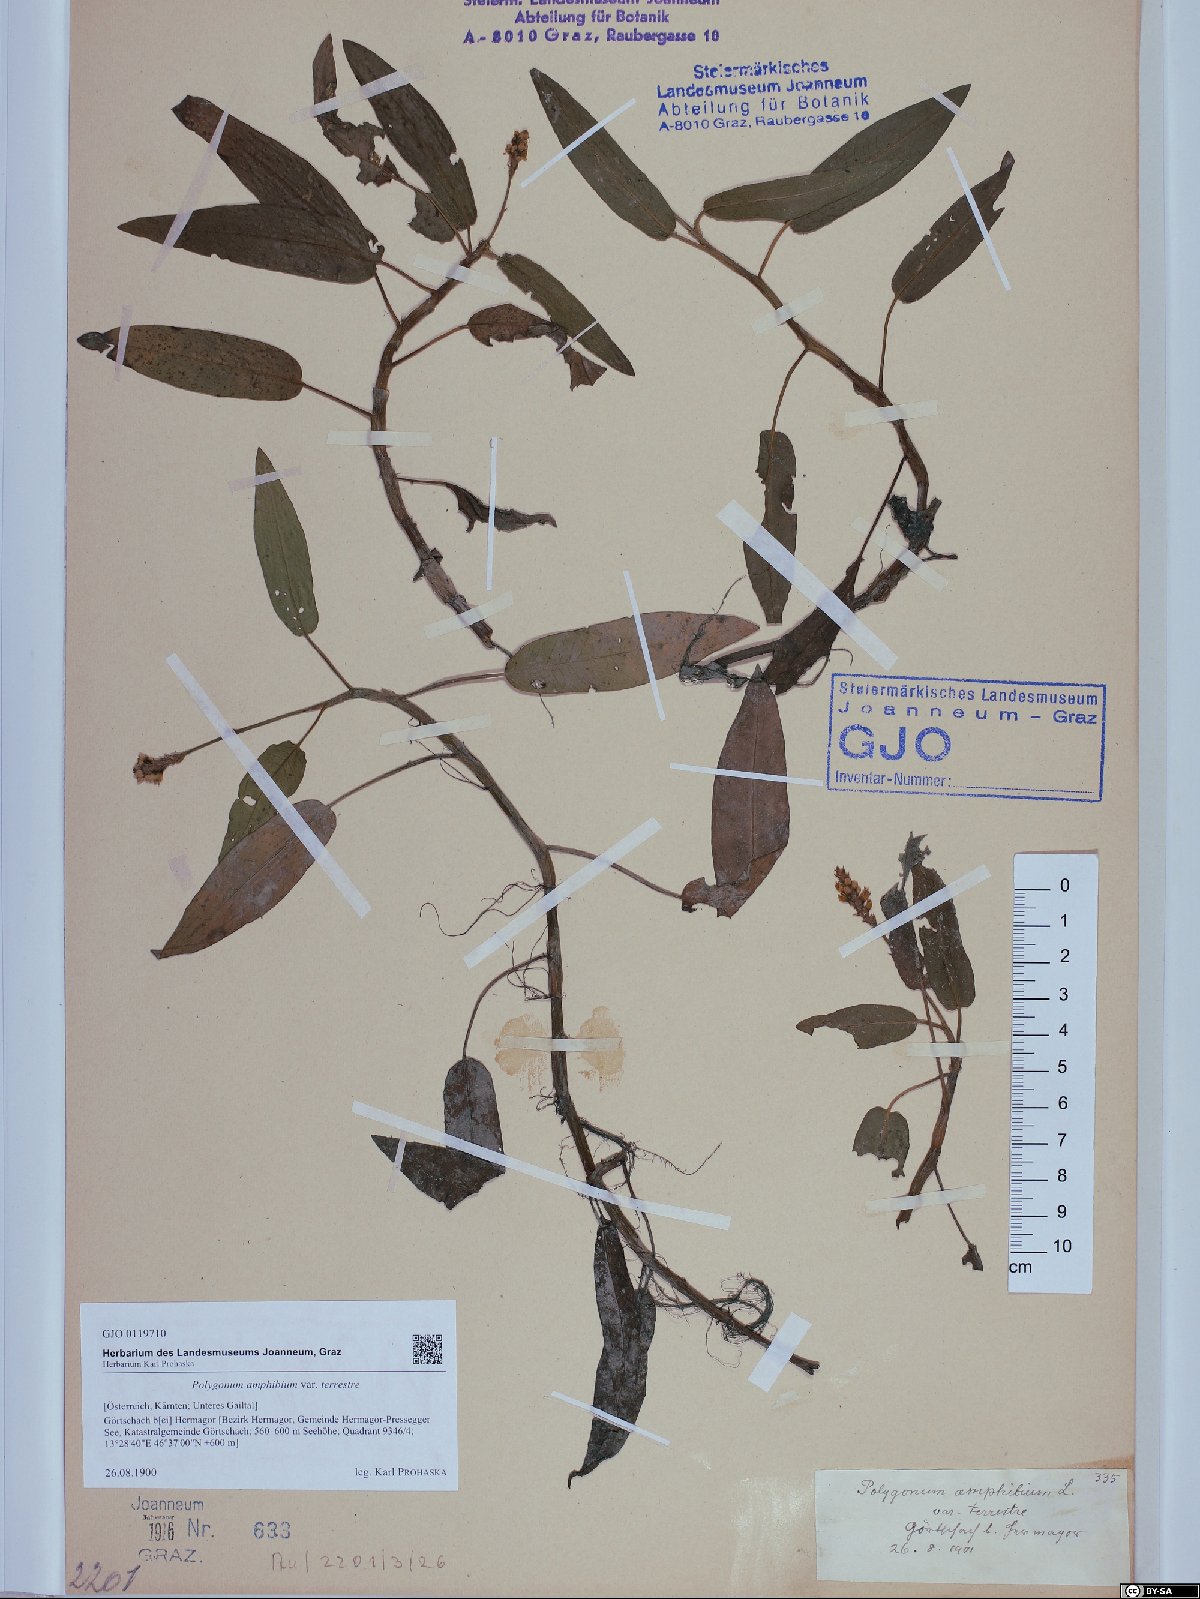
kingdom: Plantae
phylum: Tracheophyta
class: Magnoliopsida
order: Caryophyllales
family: Polygonaceae
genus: Persicaria
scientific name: Persicaria amphibia
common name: Amphibious bistort
